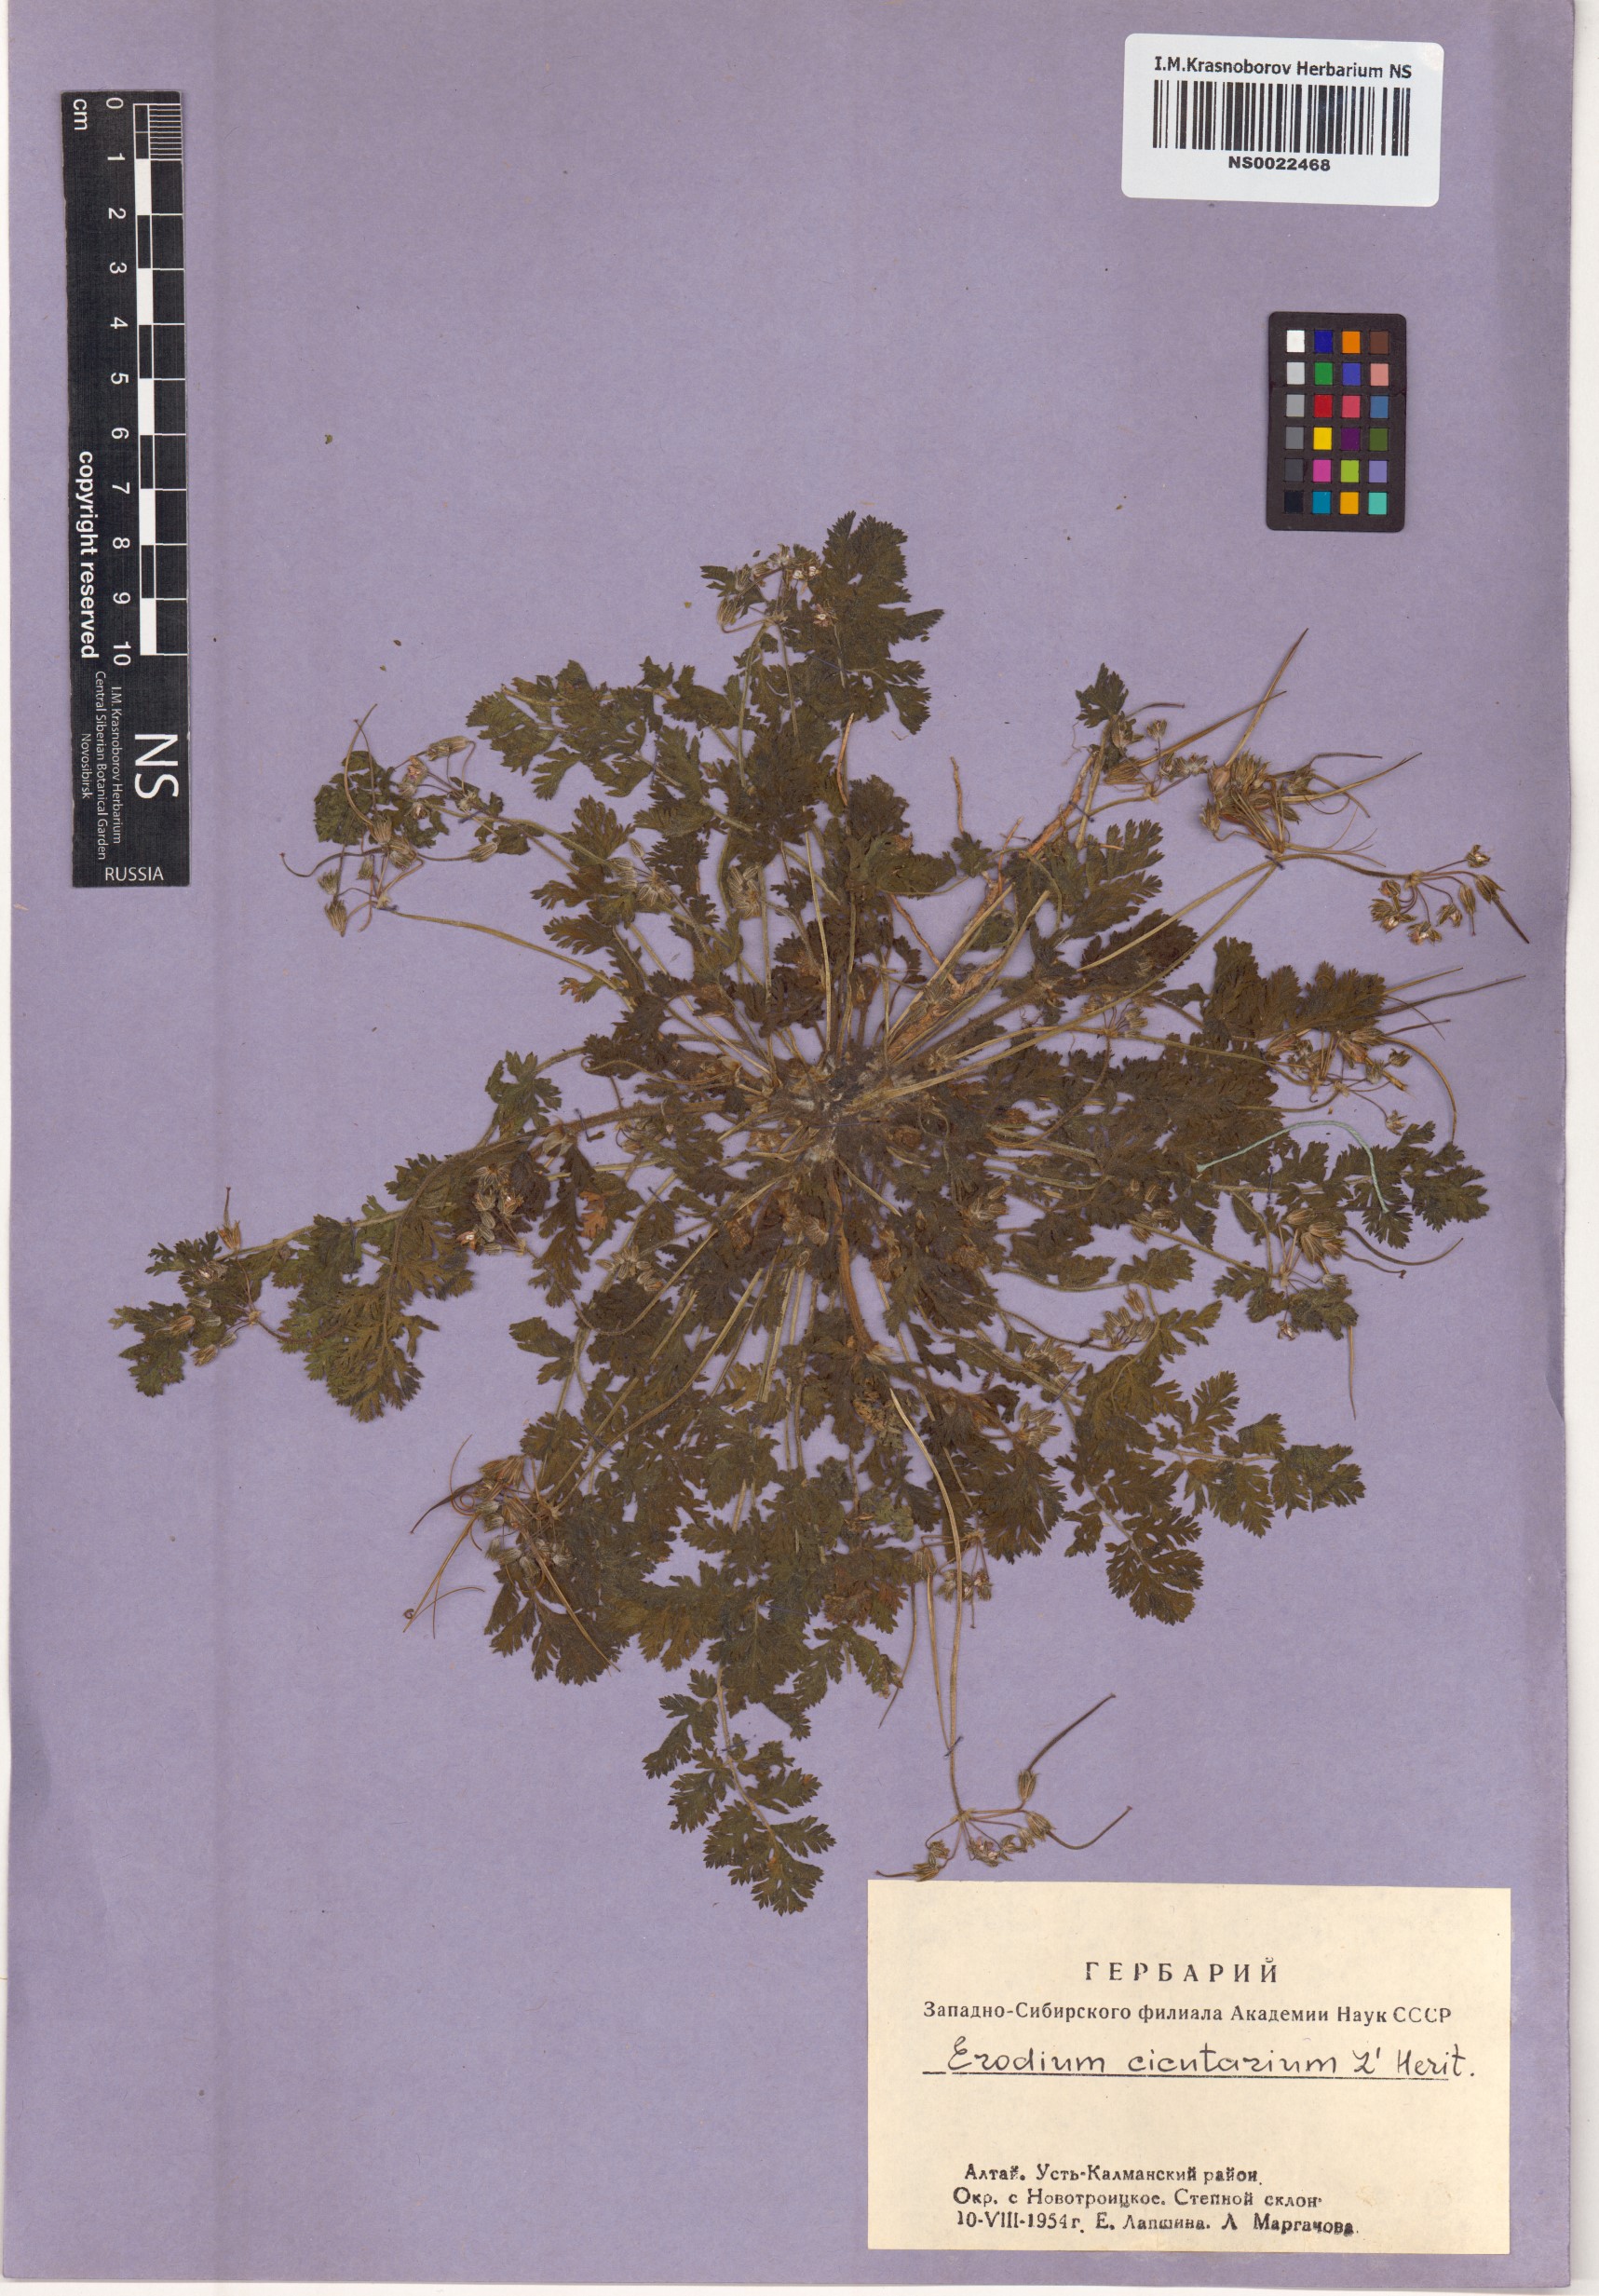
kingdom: Plantae
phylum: Tracheophyta
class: Magnoliopsida
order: Geraniales
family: Geraniaceae
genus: Erodium
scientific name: Erodium cicutarium
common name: Common stork's-bill
